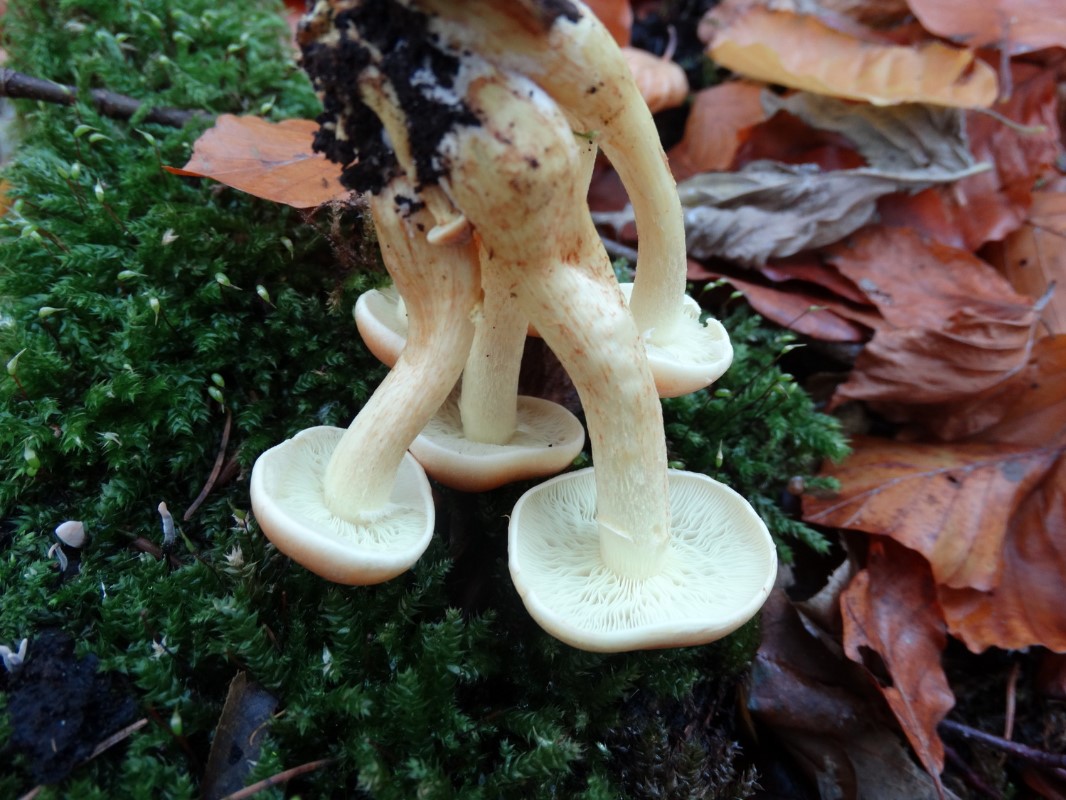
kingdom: Fungi
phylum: Basidiomycota
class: Agaricomycetes
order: Agaricales
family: Strophariaceae
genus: Hypholoma
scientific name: Hypholoma fasciculare
